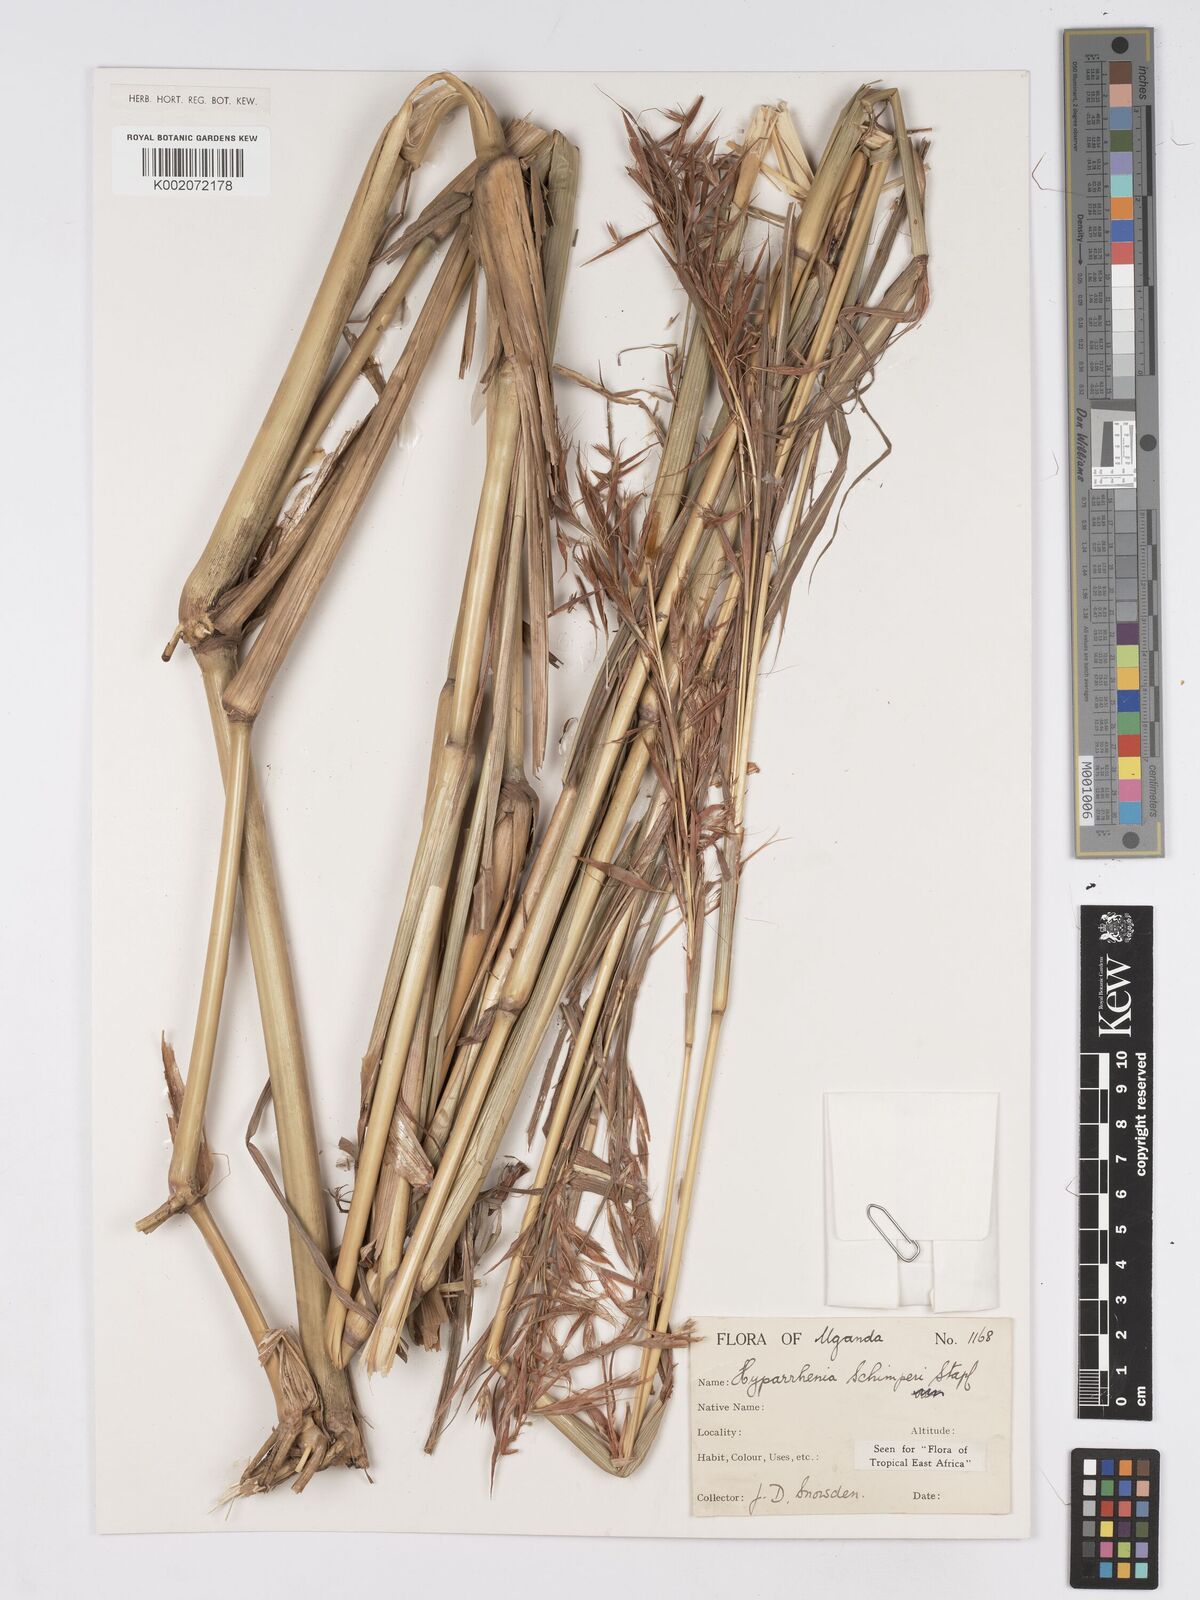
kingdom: Plantae
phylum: Tracheophyta
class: Liliopsida
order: Poales
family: Poaceae
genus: Hyparrhenia
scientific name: Hyparrhenia schimperi
